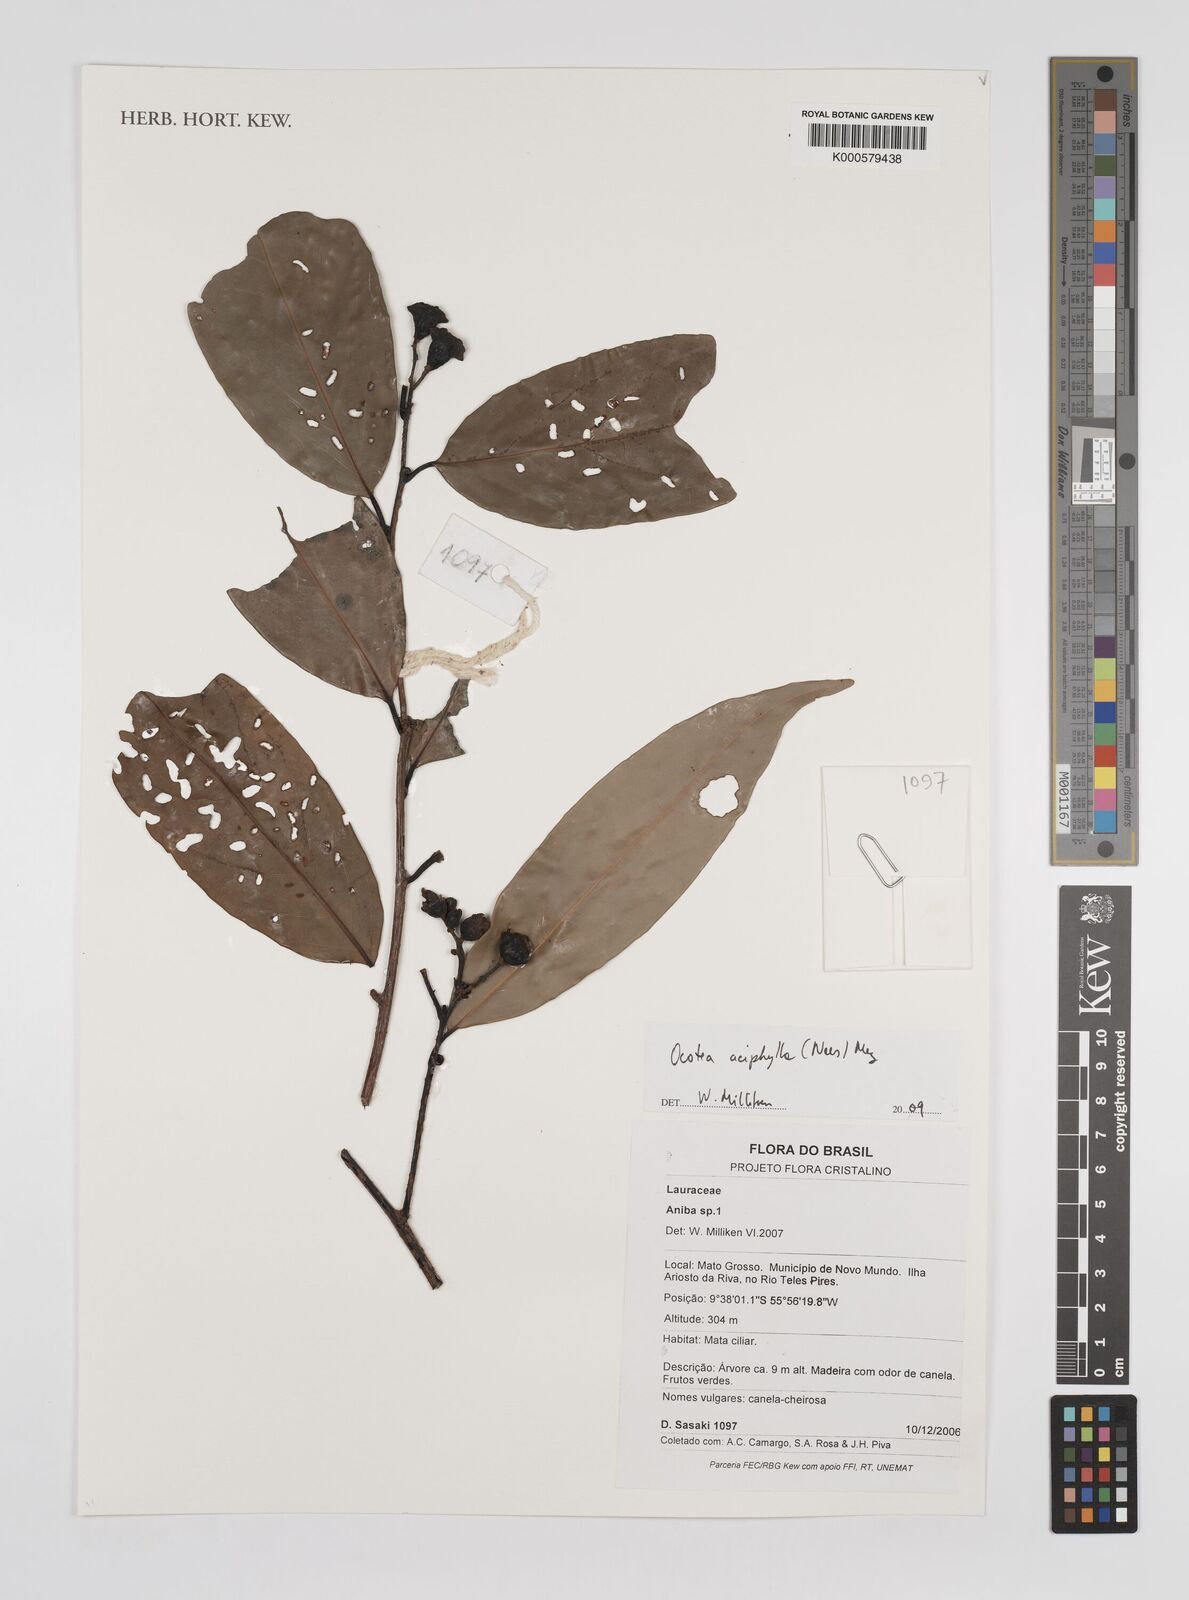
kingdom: Plantae
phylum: Tracheophyta
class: Magnoliopsida
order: Laurales
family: Lauraceae
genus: Ocotea
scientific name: Ocotea aciphylla
